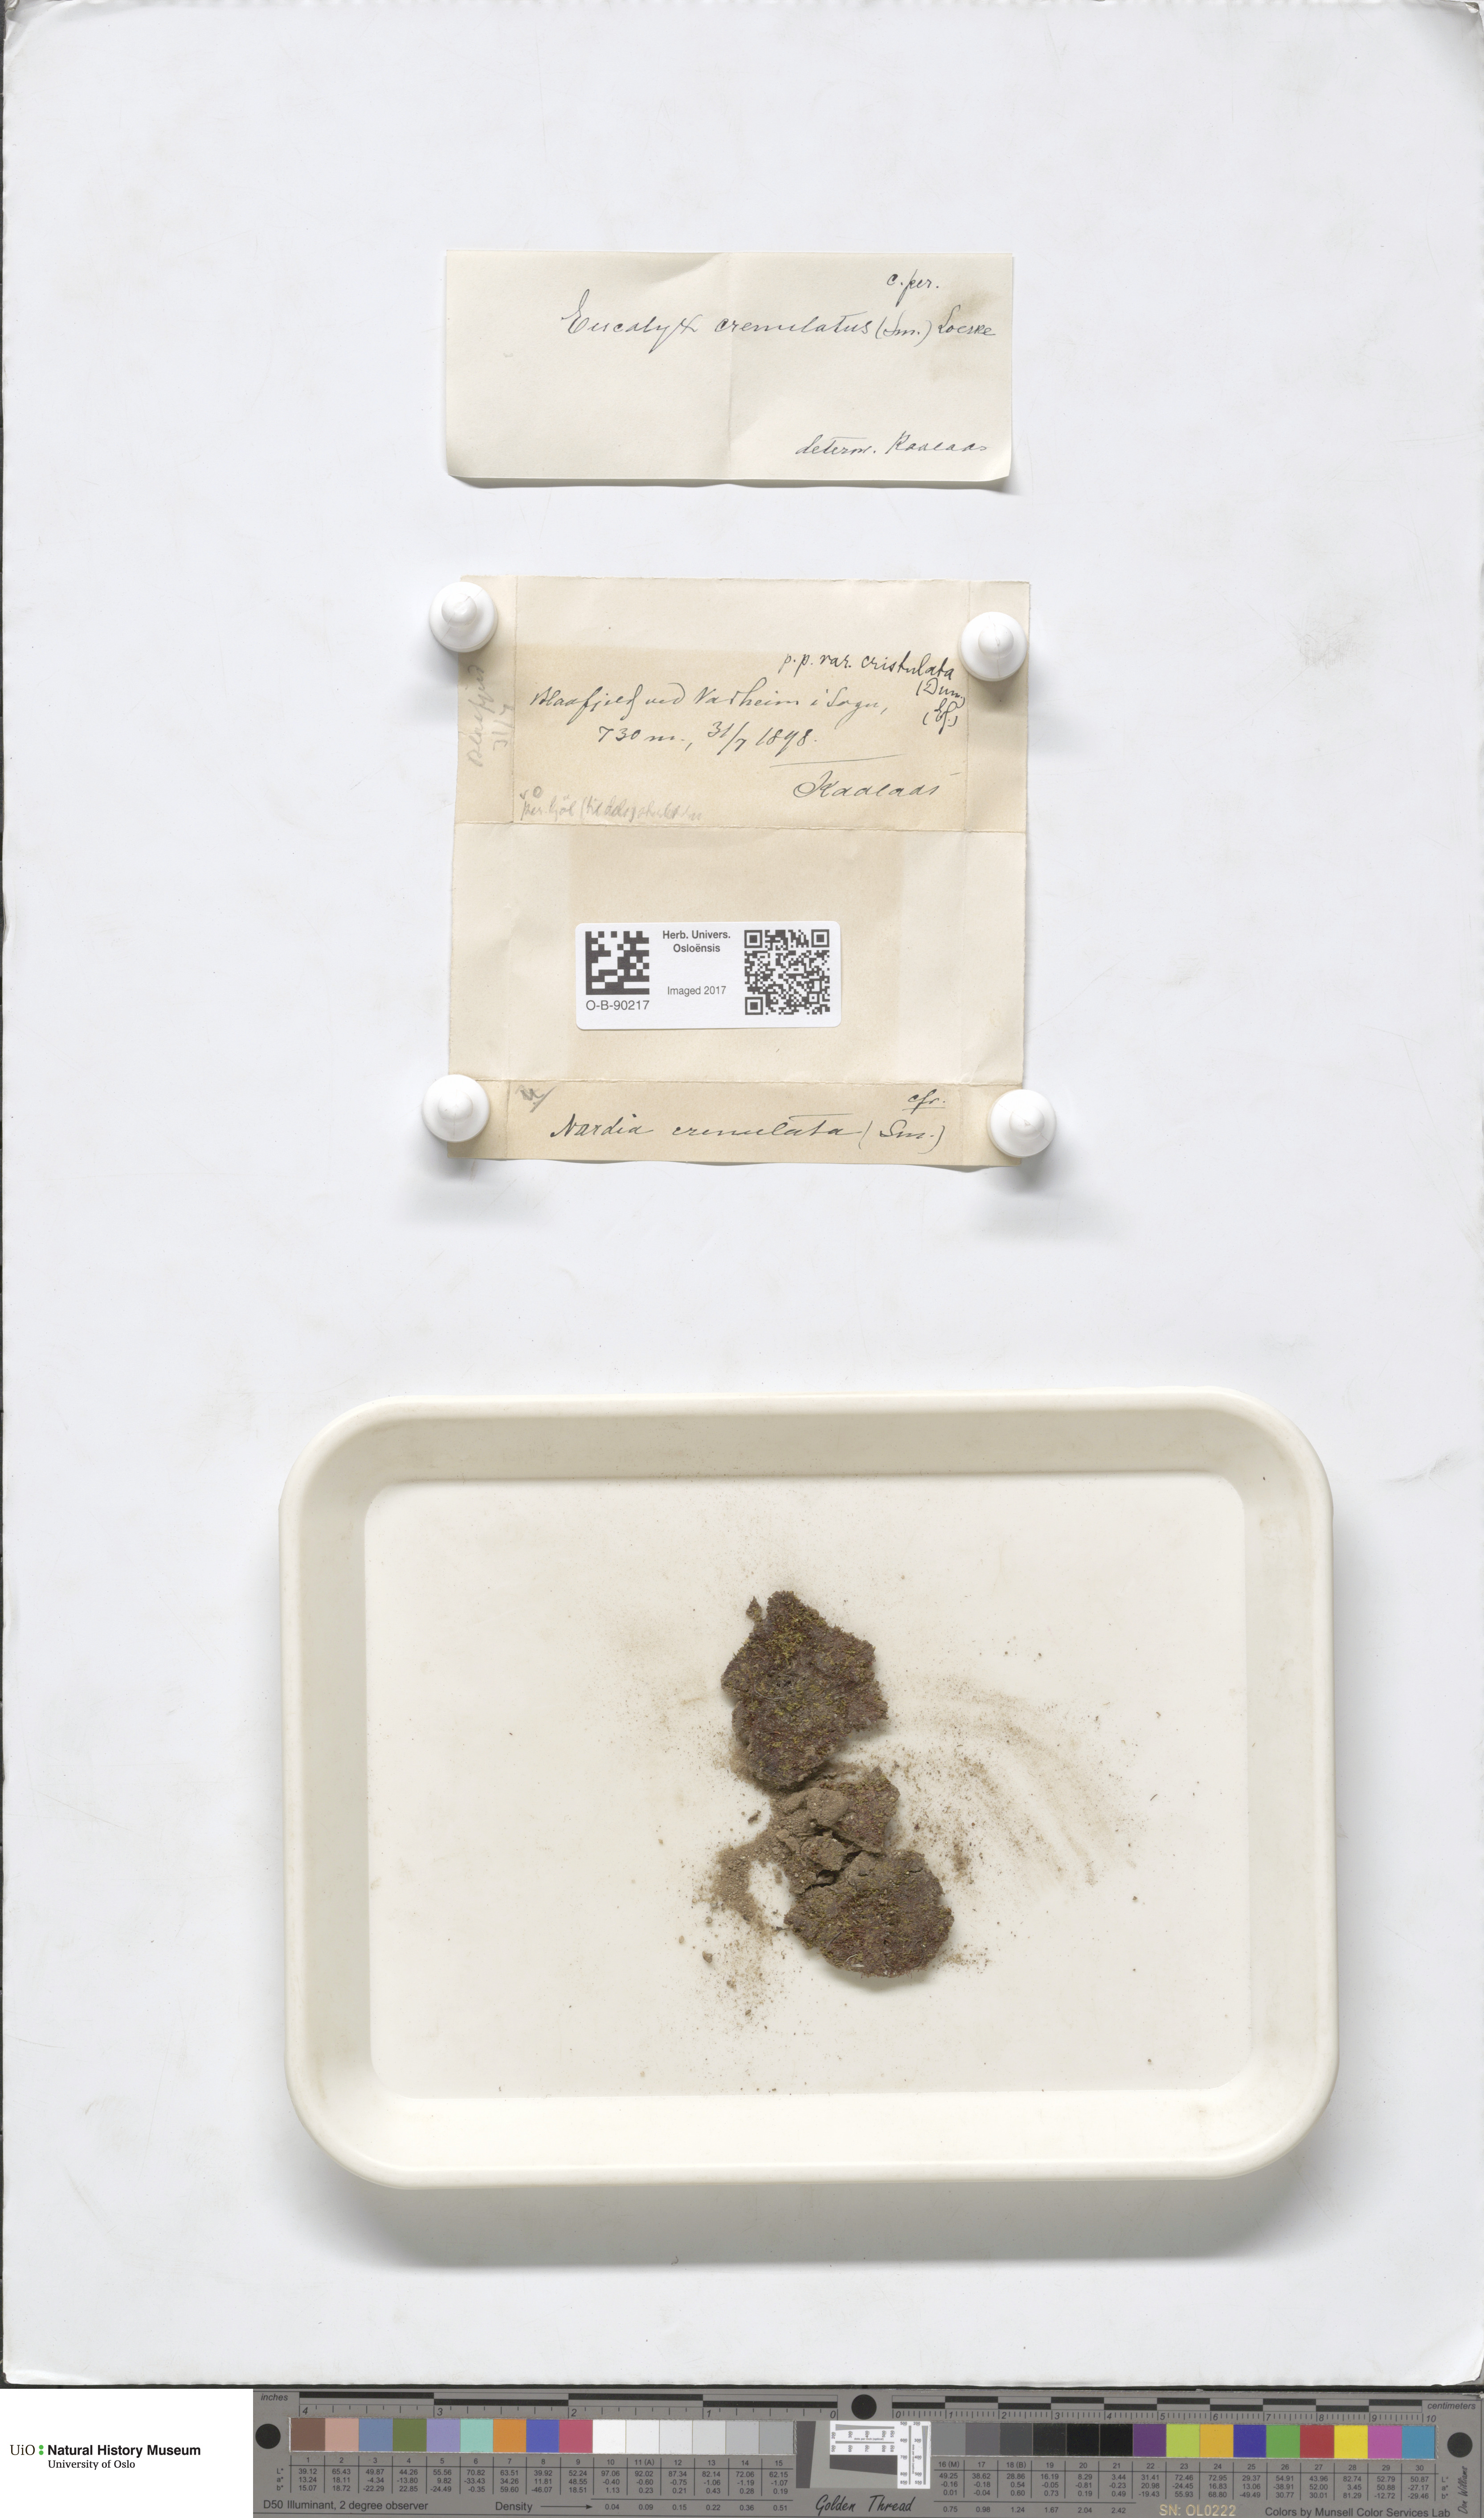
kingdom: Plantae
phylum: Marchantiophyta
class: Jungermanniopsida
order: Jungermanniales
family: Solenostomataceae
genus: Solenostoma
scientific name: Solenostoma gracillimum
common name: Crenulated flapwort
